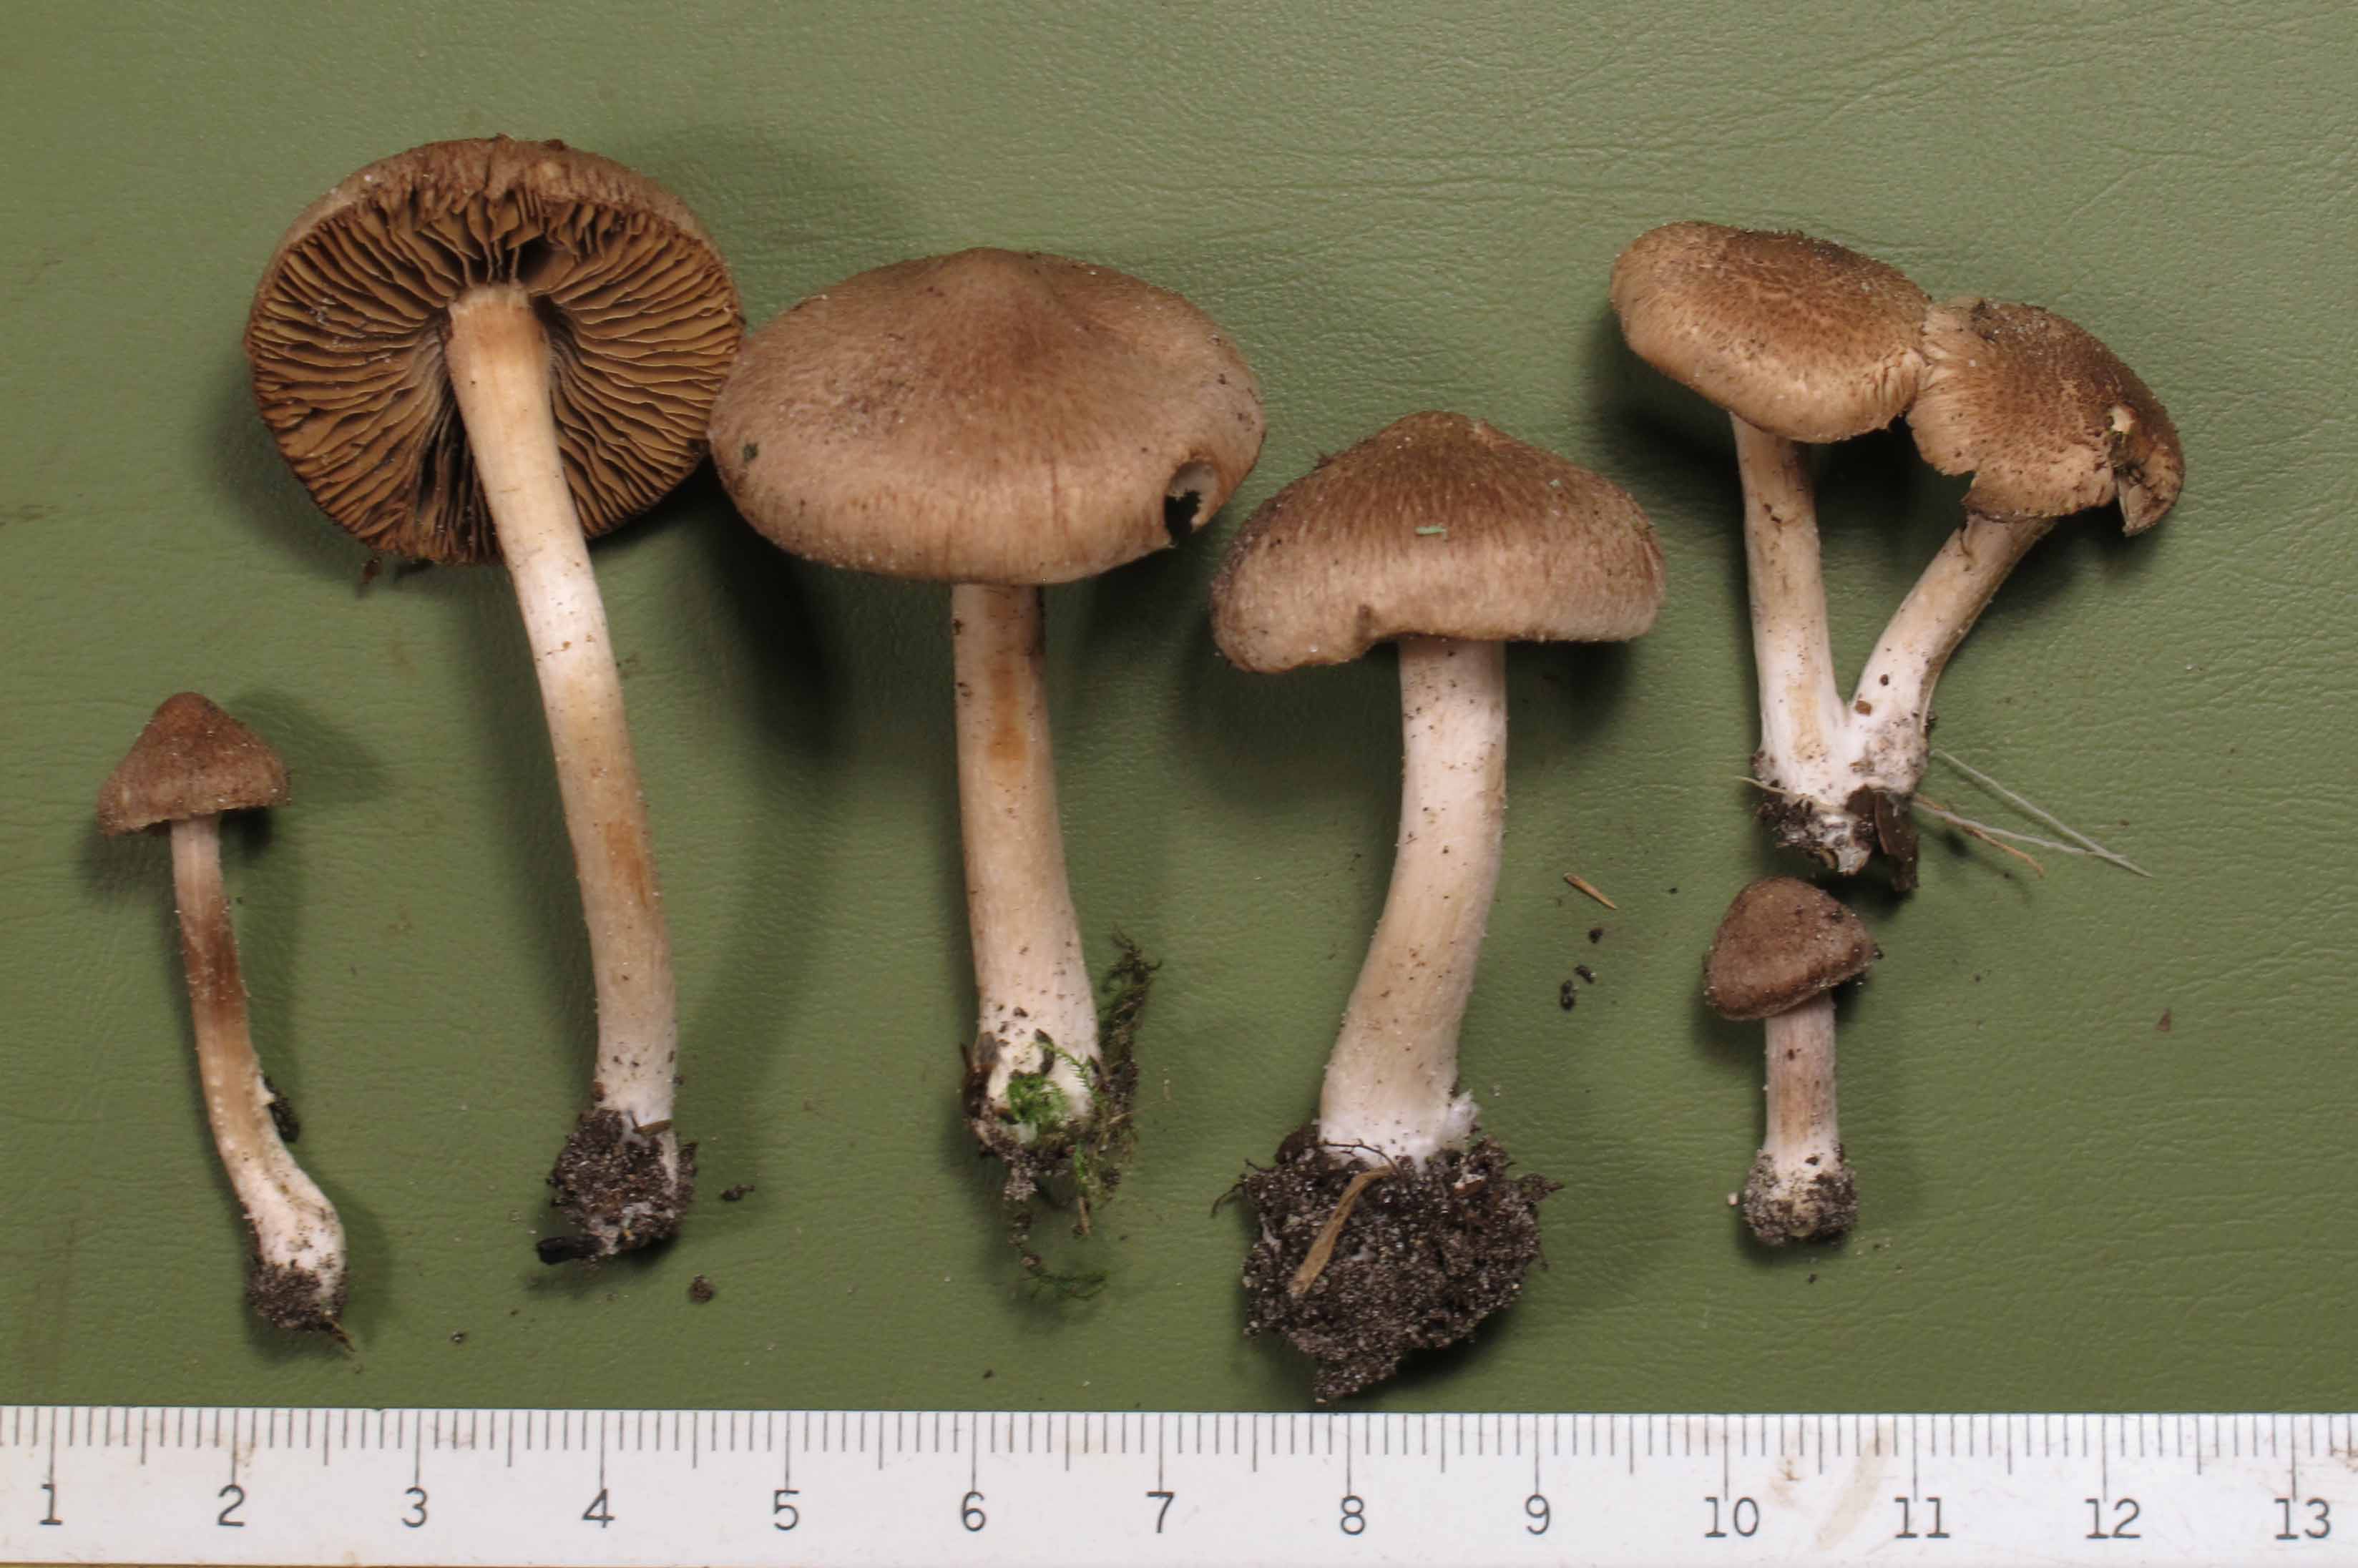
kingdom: Fungi
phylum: Basidiomycota
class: Agaricomycetes
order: Agaricales
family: Inocybaceae
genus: Inocybe
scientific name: Inocybe
